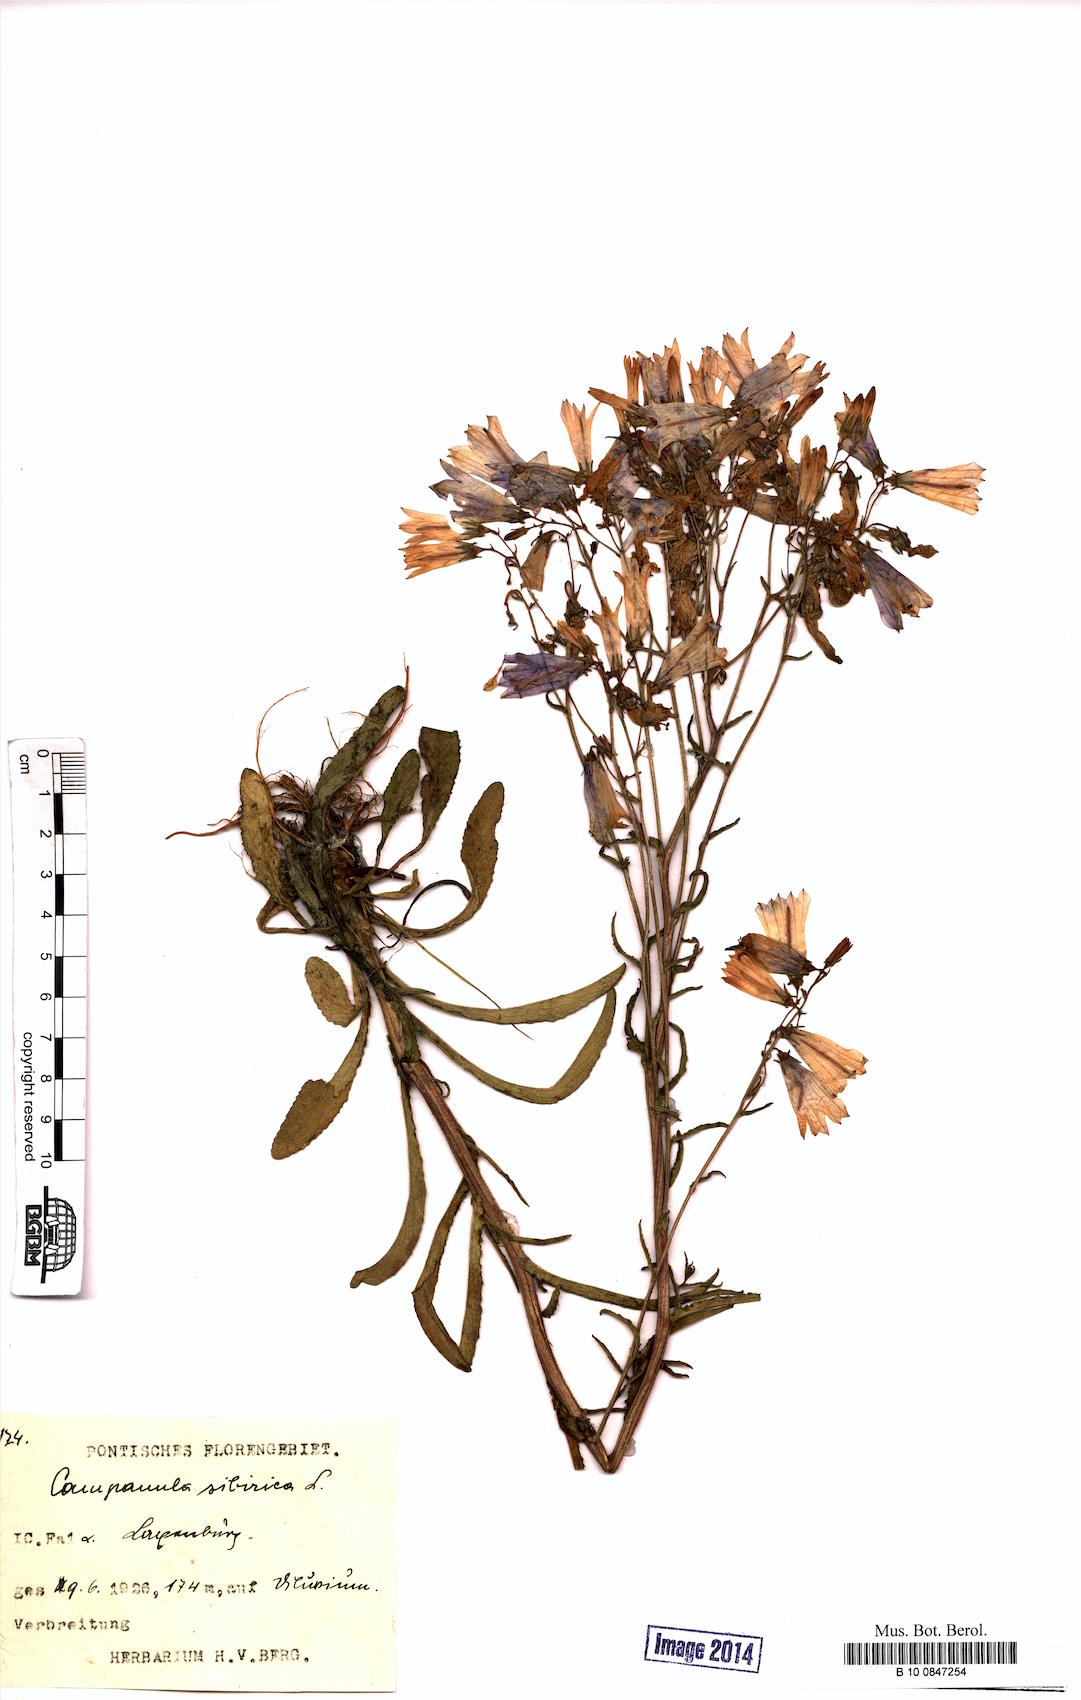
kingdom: Plantae
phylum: Tracheophyta
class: Magnoliopsida
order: Asterales
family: Campanulaceae
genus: Campanula
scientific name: Campanula sibirica
